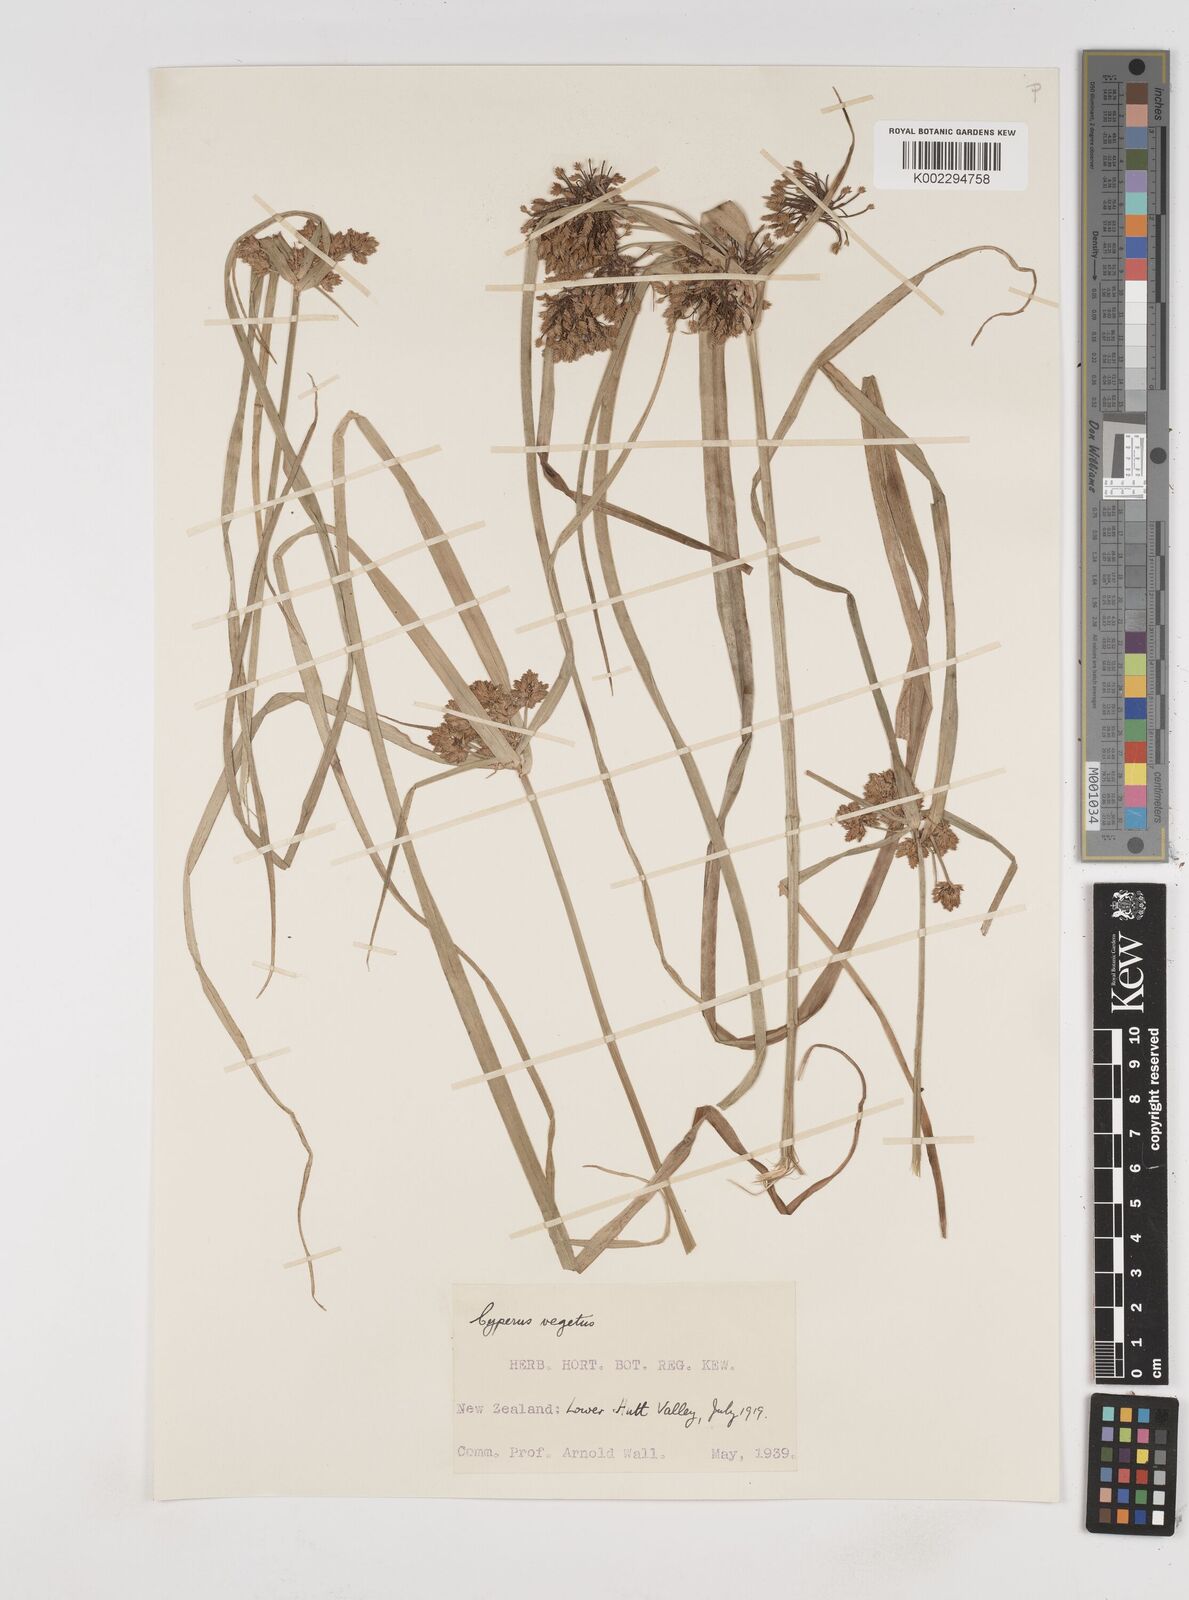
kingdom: Plantae
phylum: Tracheophyta
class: Liliopsida
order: Poales
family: Cyperaceae
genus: Cyperus
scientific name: Cyperus eragrostis
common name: Tall flatsedge
